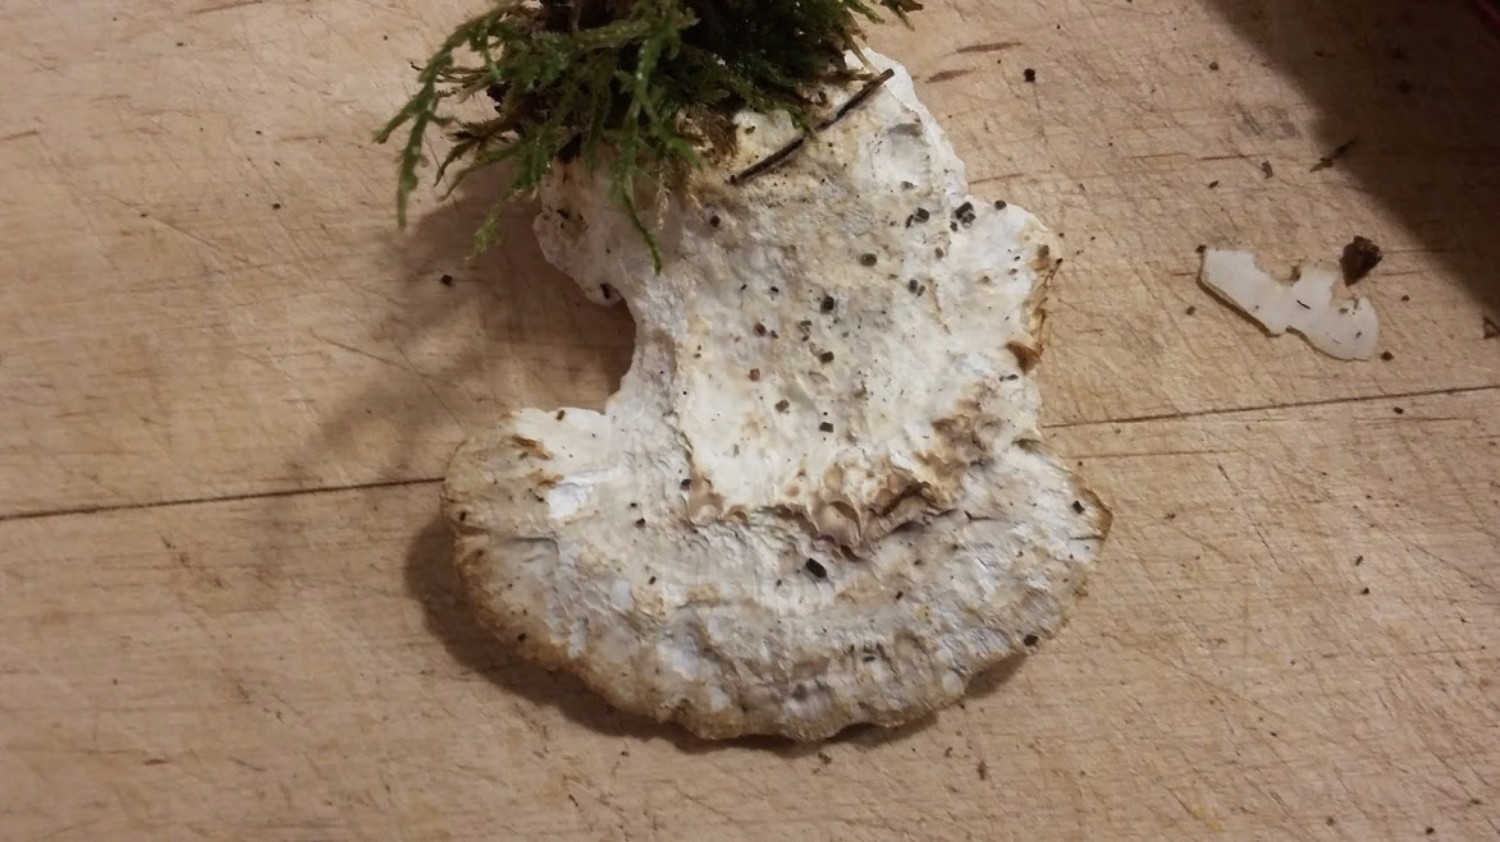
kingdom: Fungi
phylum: Basidiomycota
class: Agaricomycetes
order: Polyporales
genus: Calcipostia
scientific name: Calcipostia guttulata
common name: dråbe-kødporesvamp
